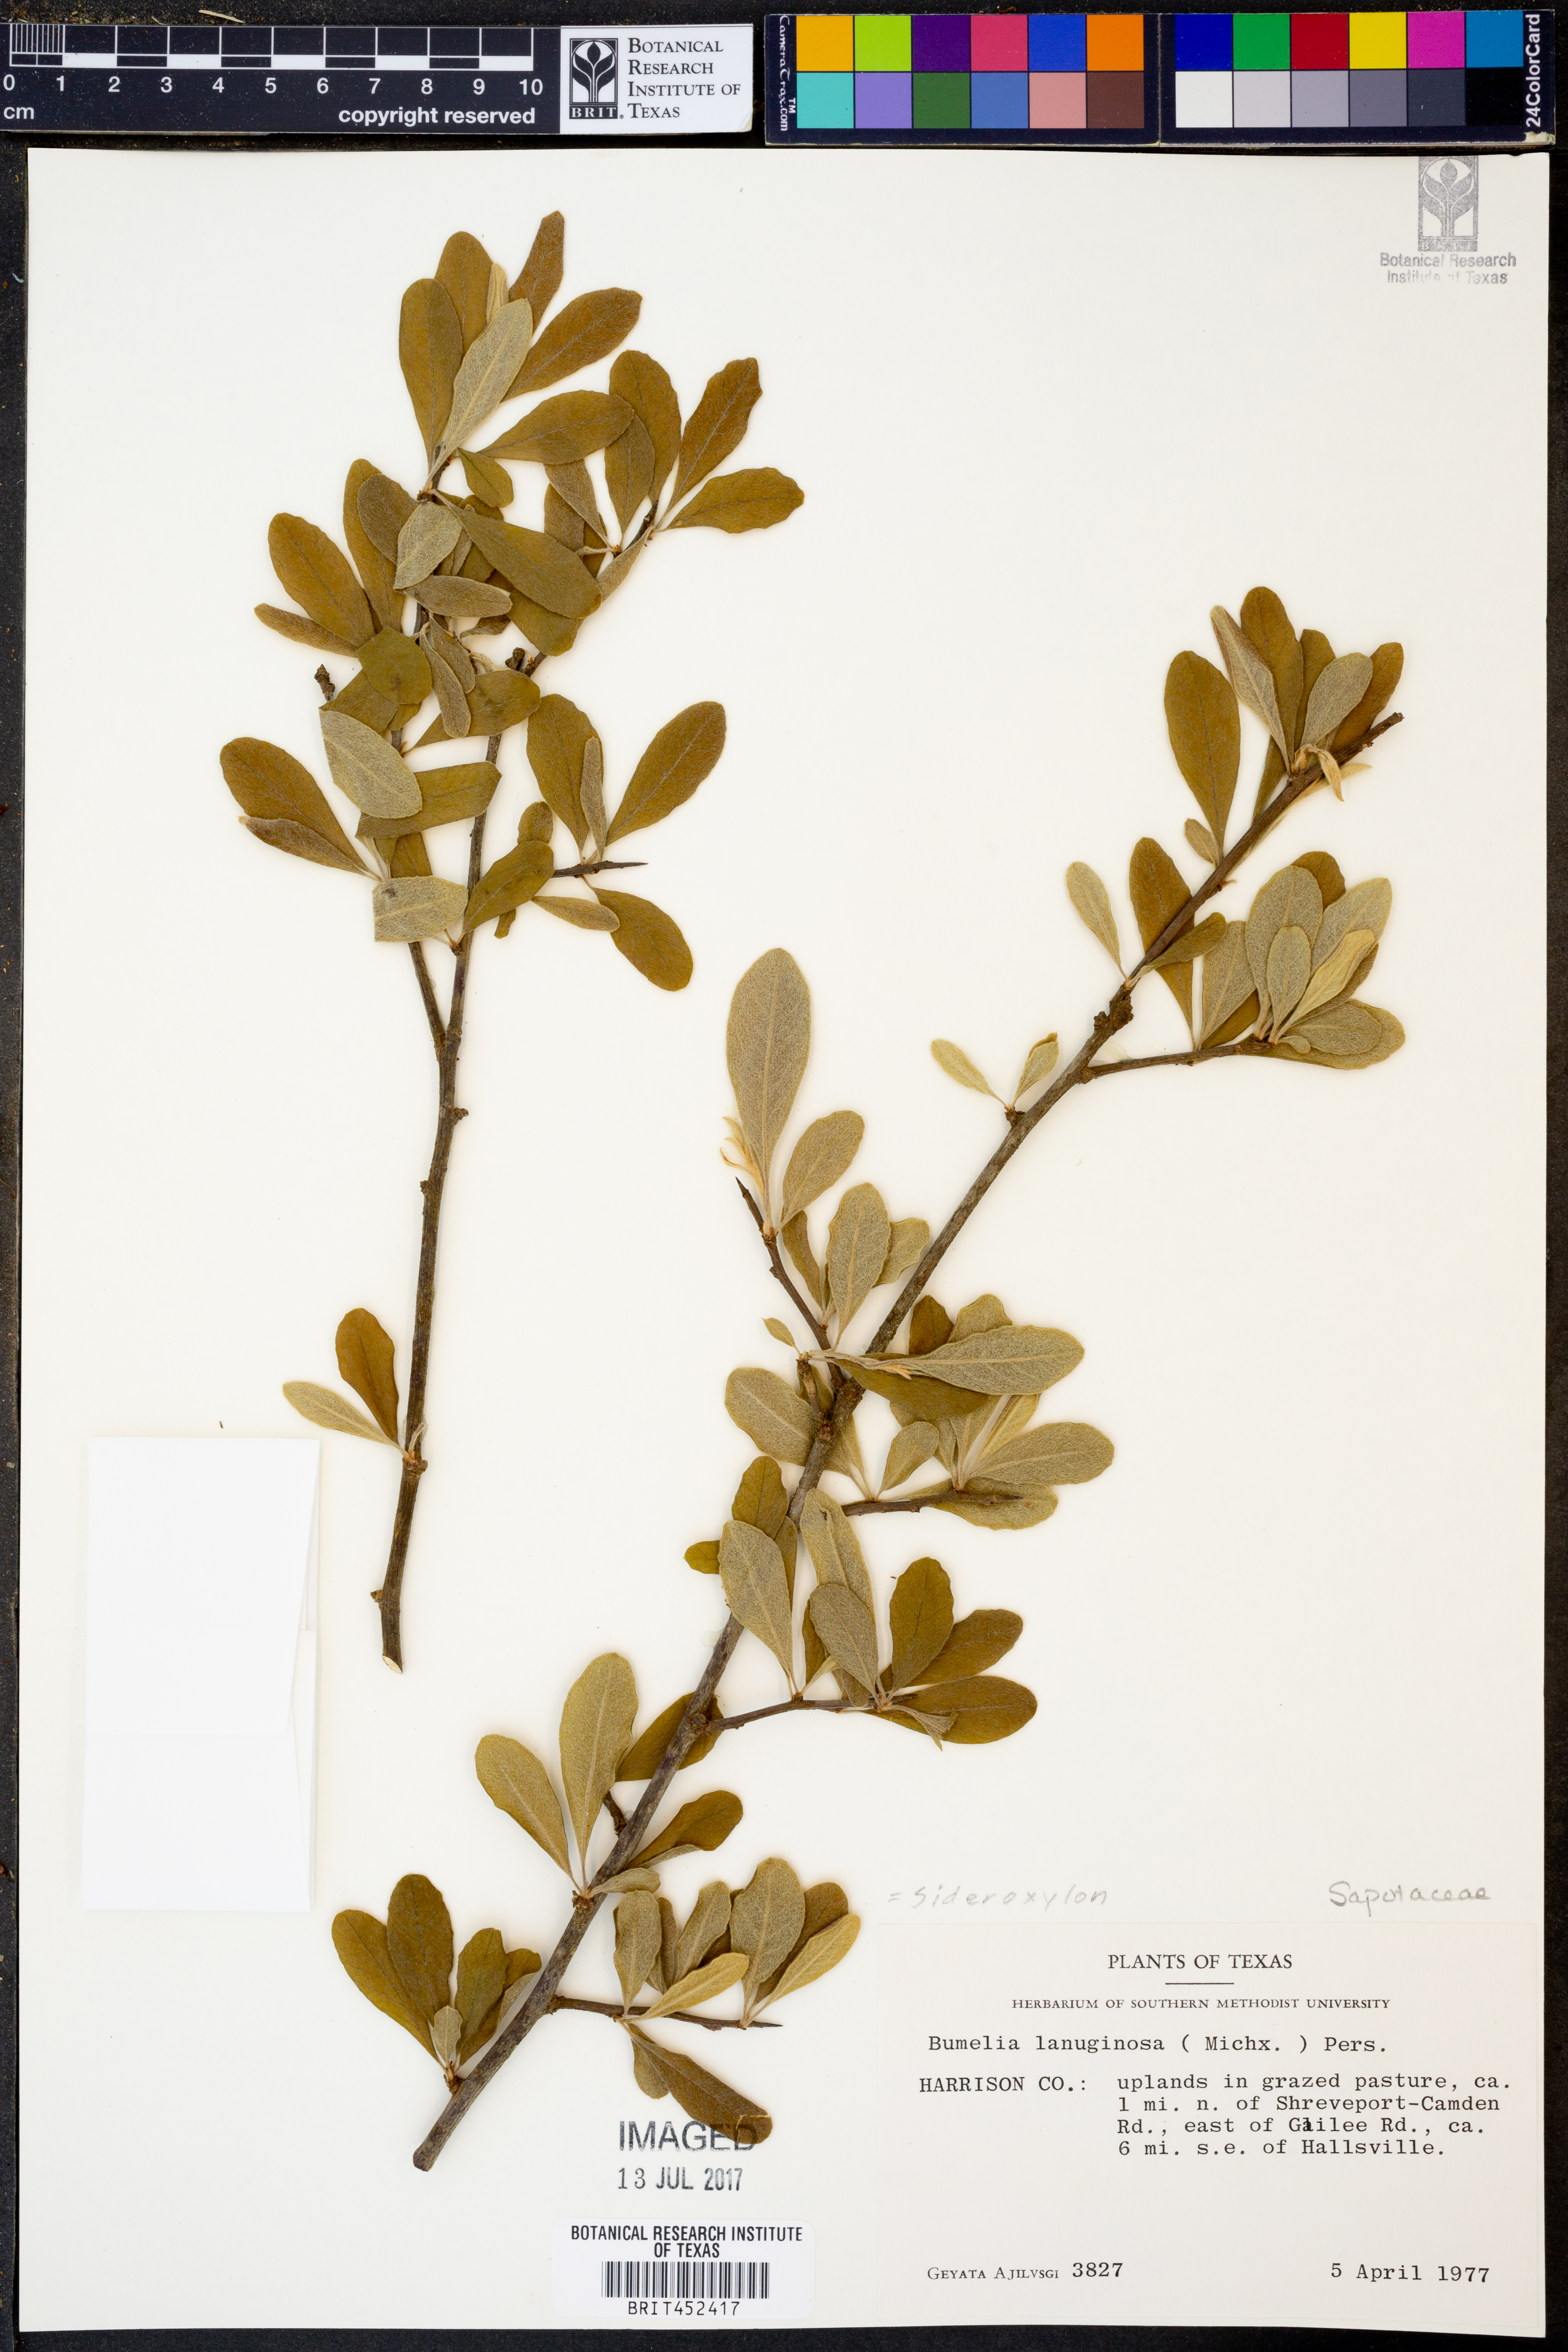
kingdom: Plantae
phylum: Tracheophyta
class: Magnoliopsida
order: Ericales
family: Sapotaceae
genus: Sideroxylon
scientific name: Sideroxylon lanuginosum
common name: Chittamwood
